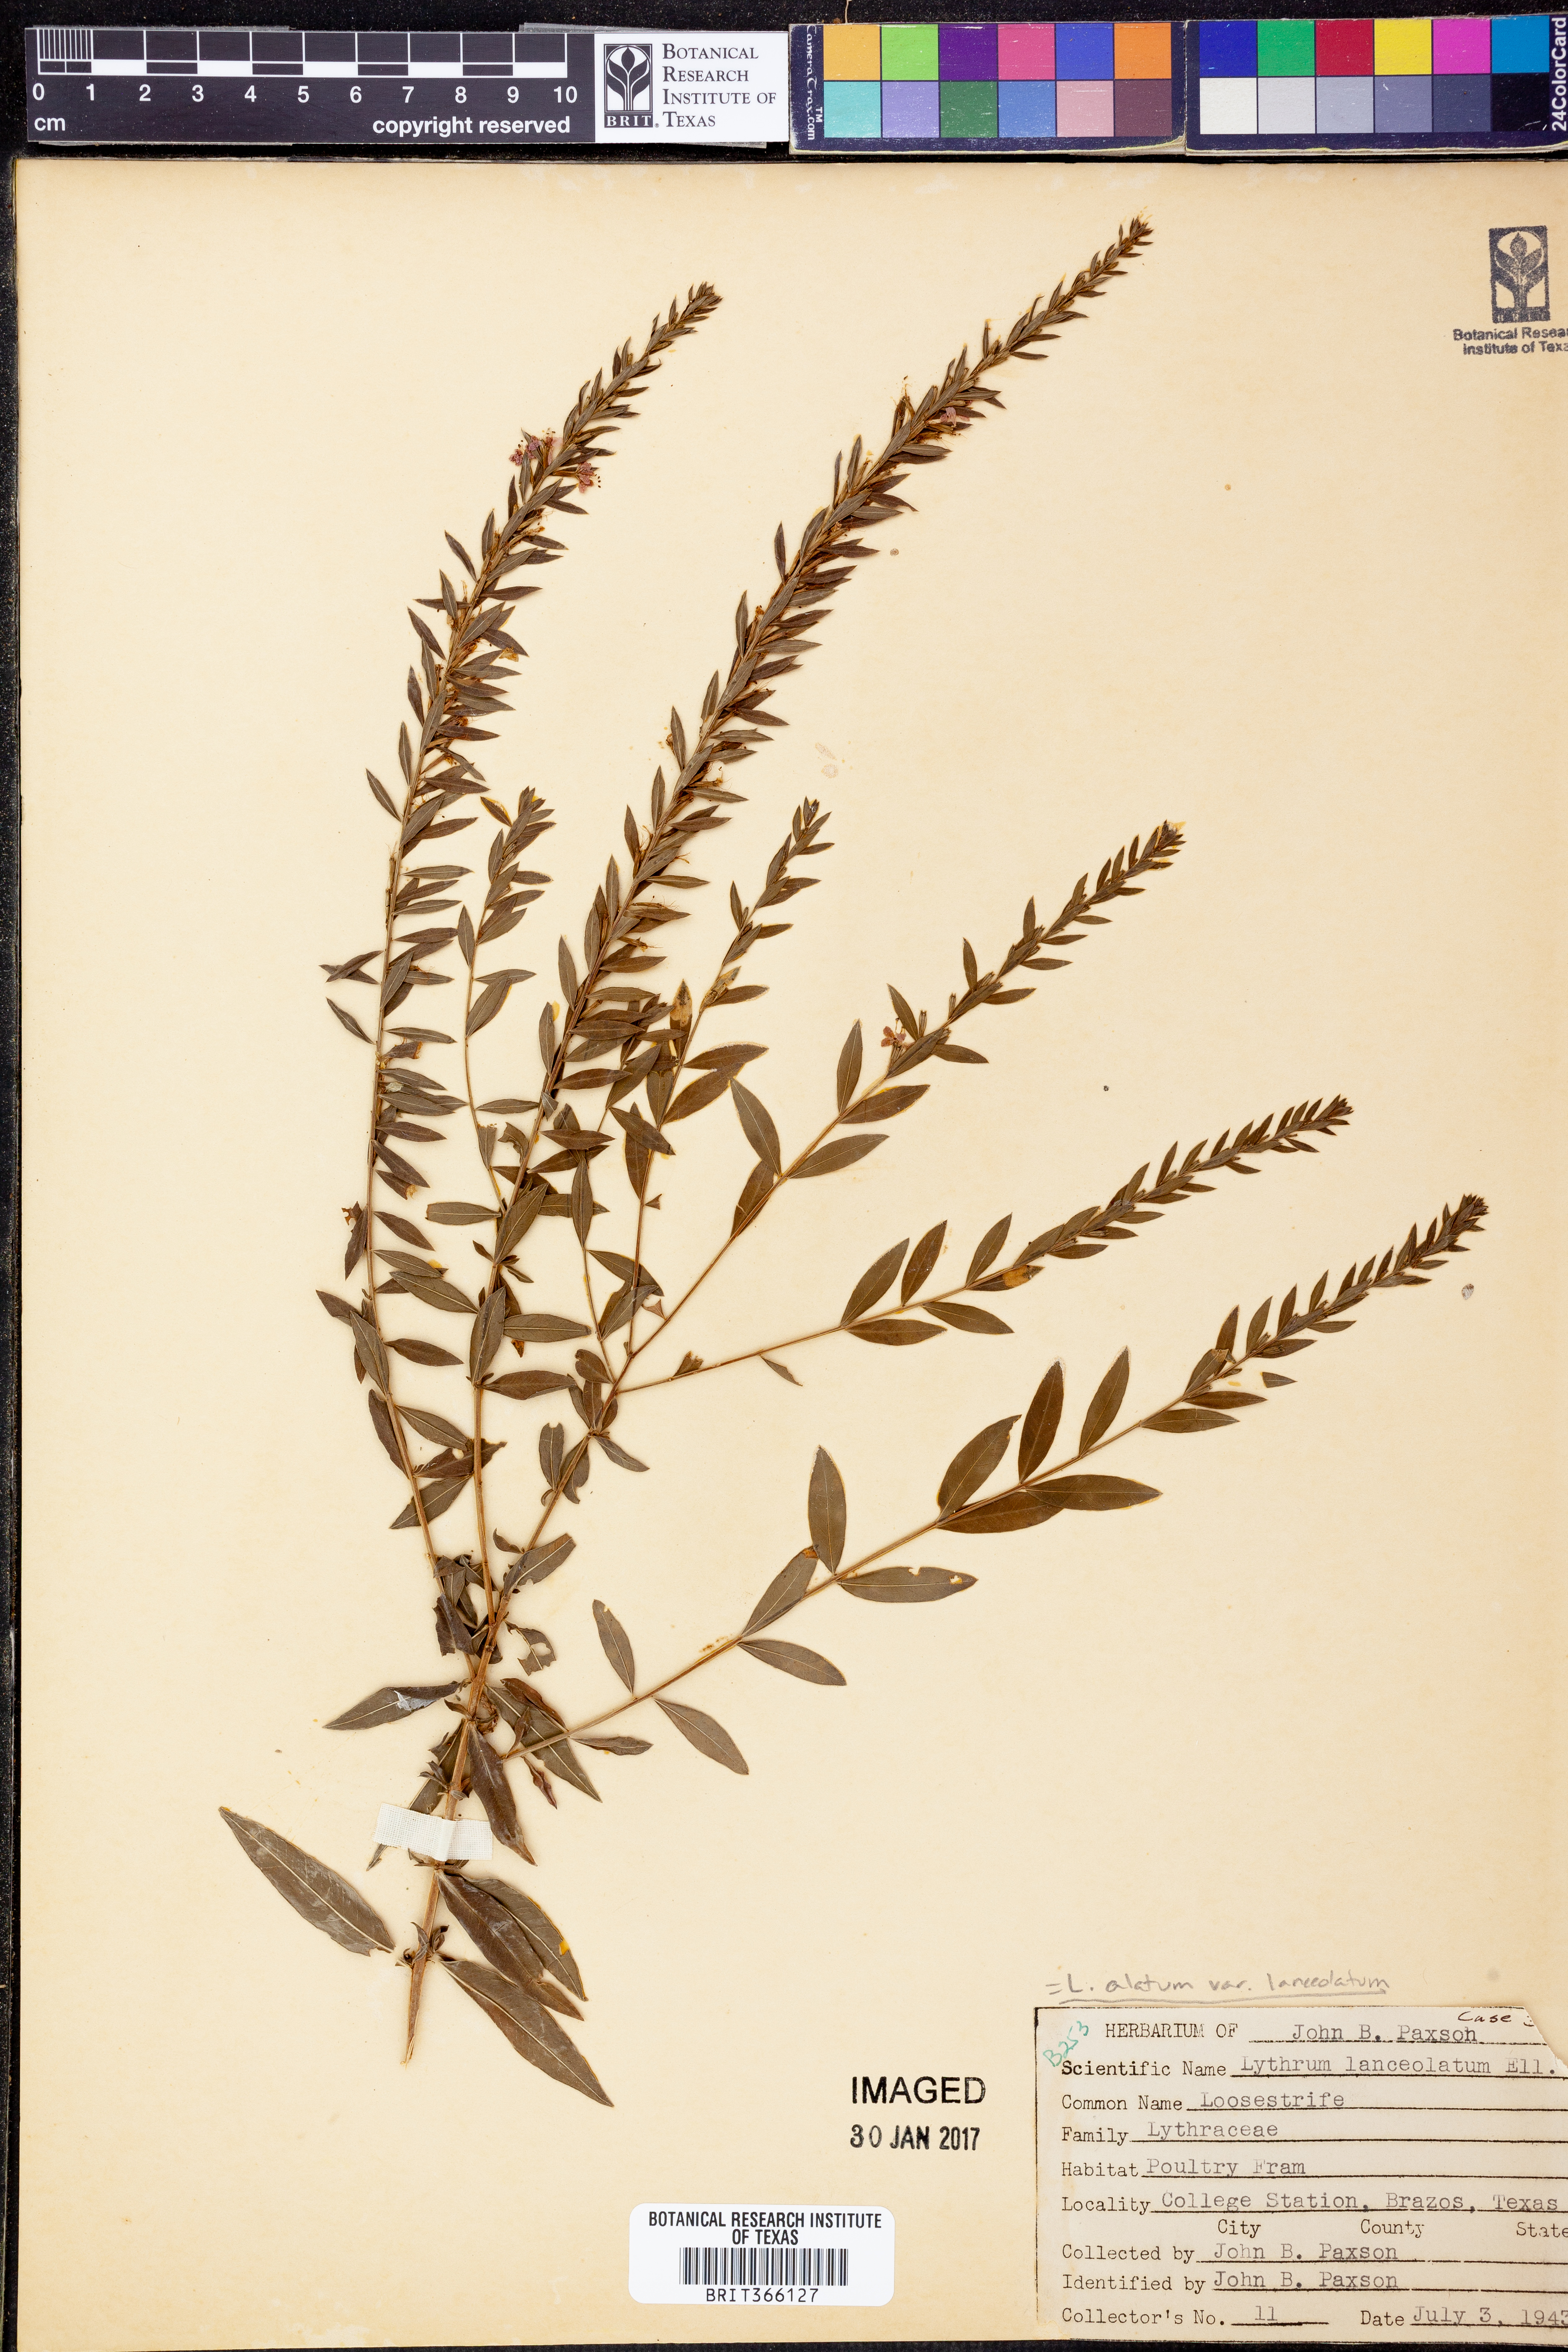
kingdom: Plantae
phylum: Tracheophyta
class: Magnoliopsida
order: Myrtales
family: Lythraceae
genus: Lythrum
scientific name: Lythrum alatum
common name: Winged loosestrife
